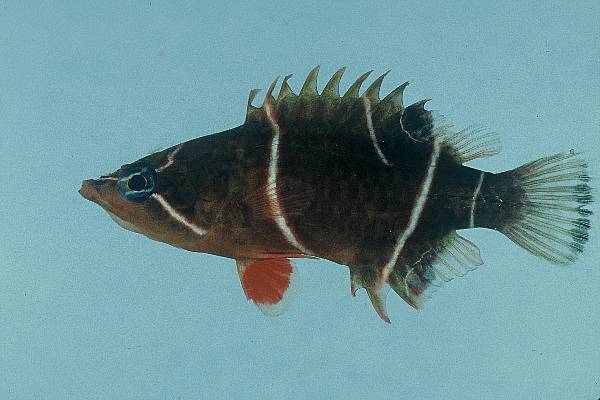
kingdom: Animalia
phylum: Chordata
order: Perciformes
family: Labridae
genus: Wetmorella
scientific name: Wetmorella albofasciata
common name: Whitebanded sharpnose wrasse
